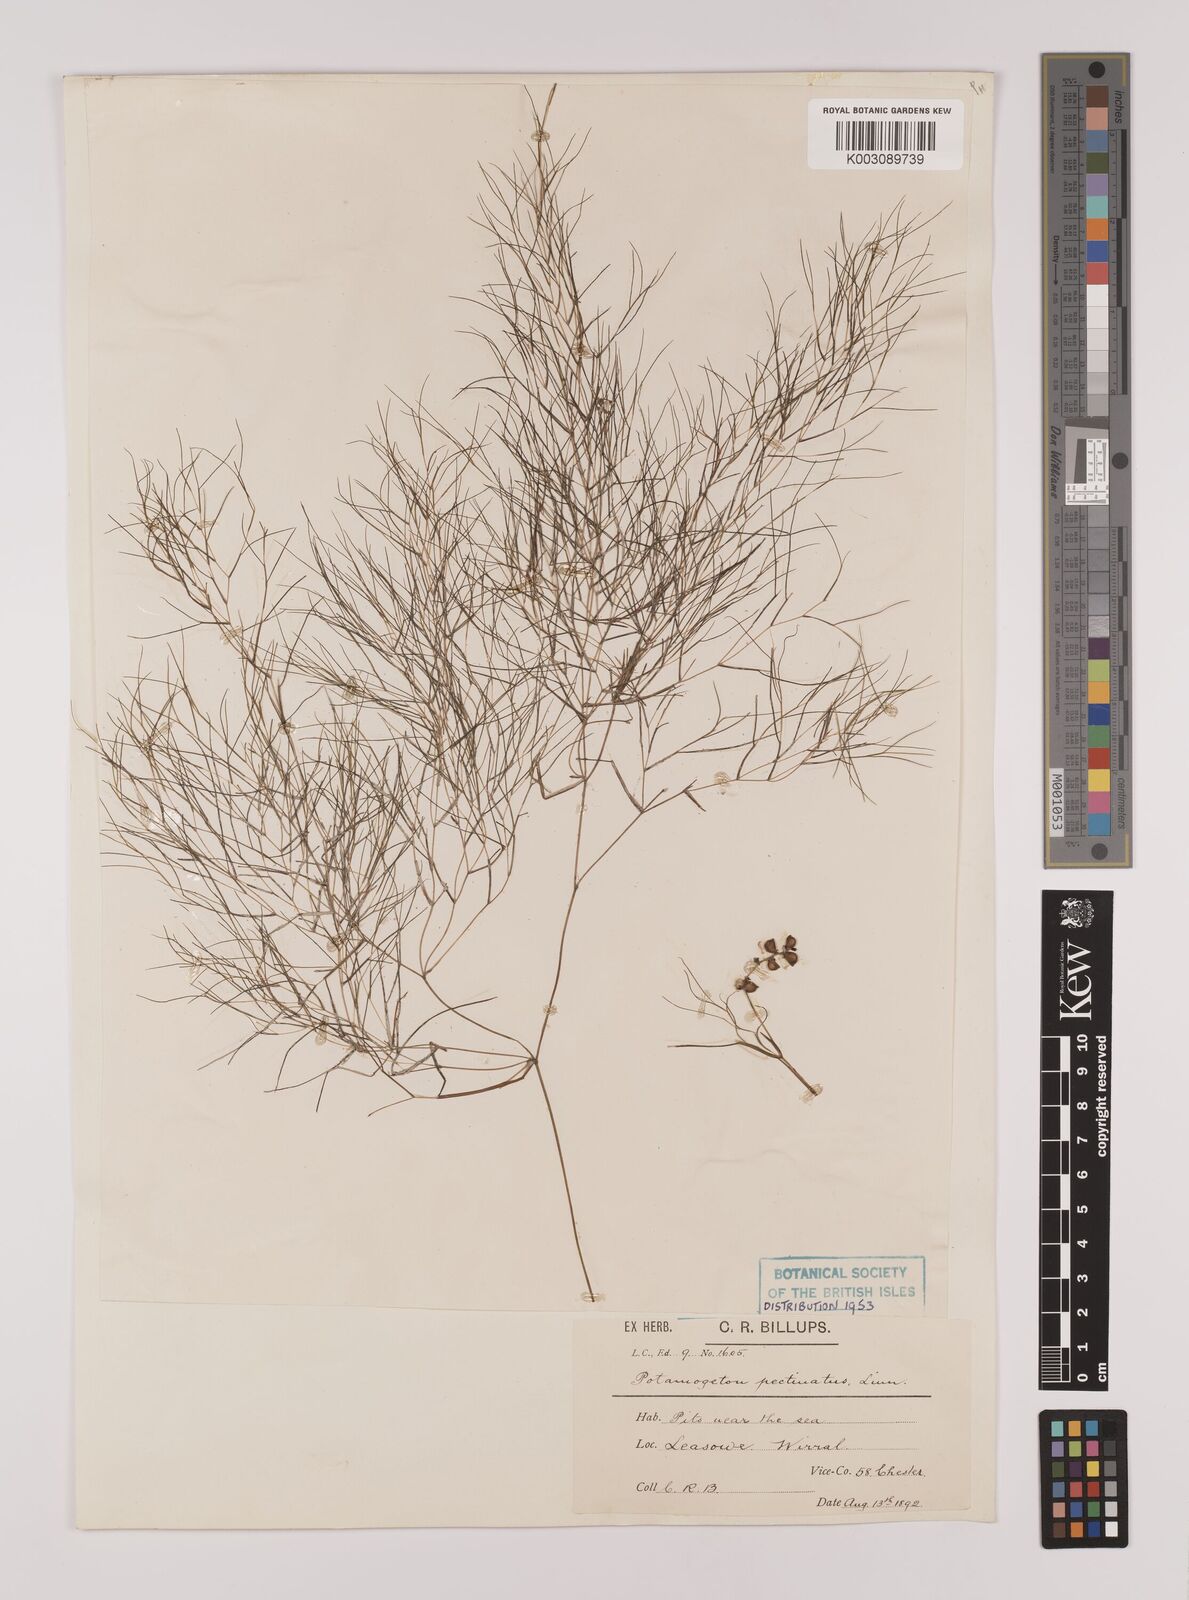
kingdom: Plantae
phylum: Tracheophyta
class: Liliopsida
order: Alismatales
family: Potamogetonaceae
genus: Stuckenia
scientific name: Stuckenia pectinata
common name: Sago pondweed
